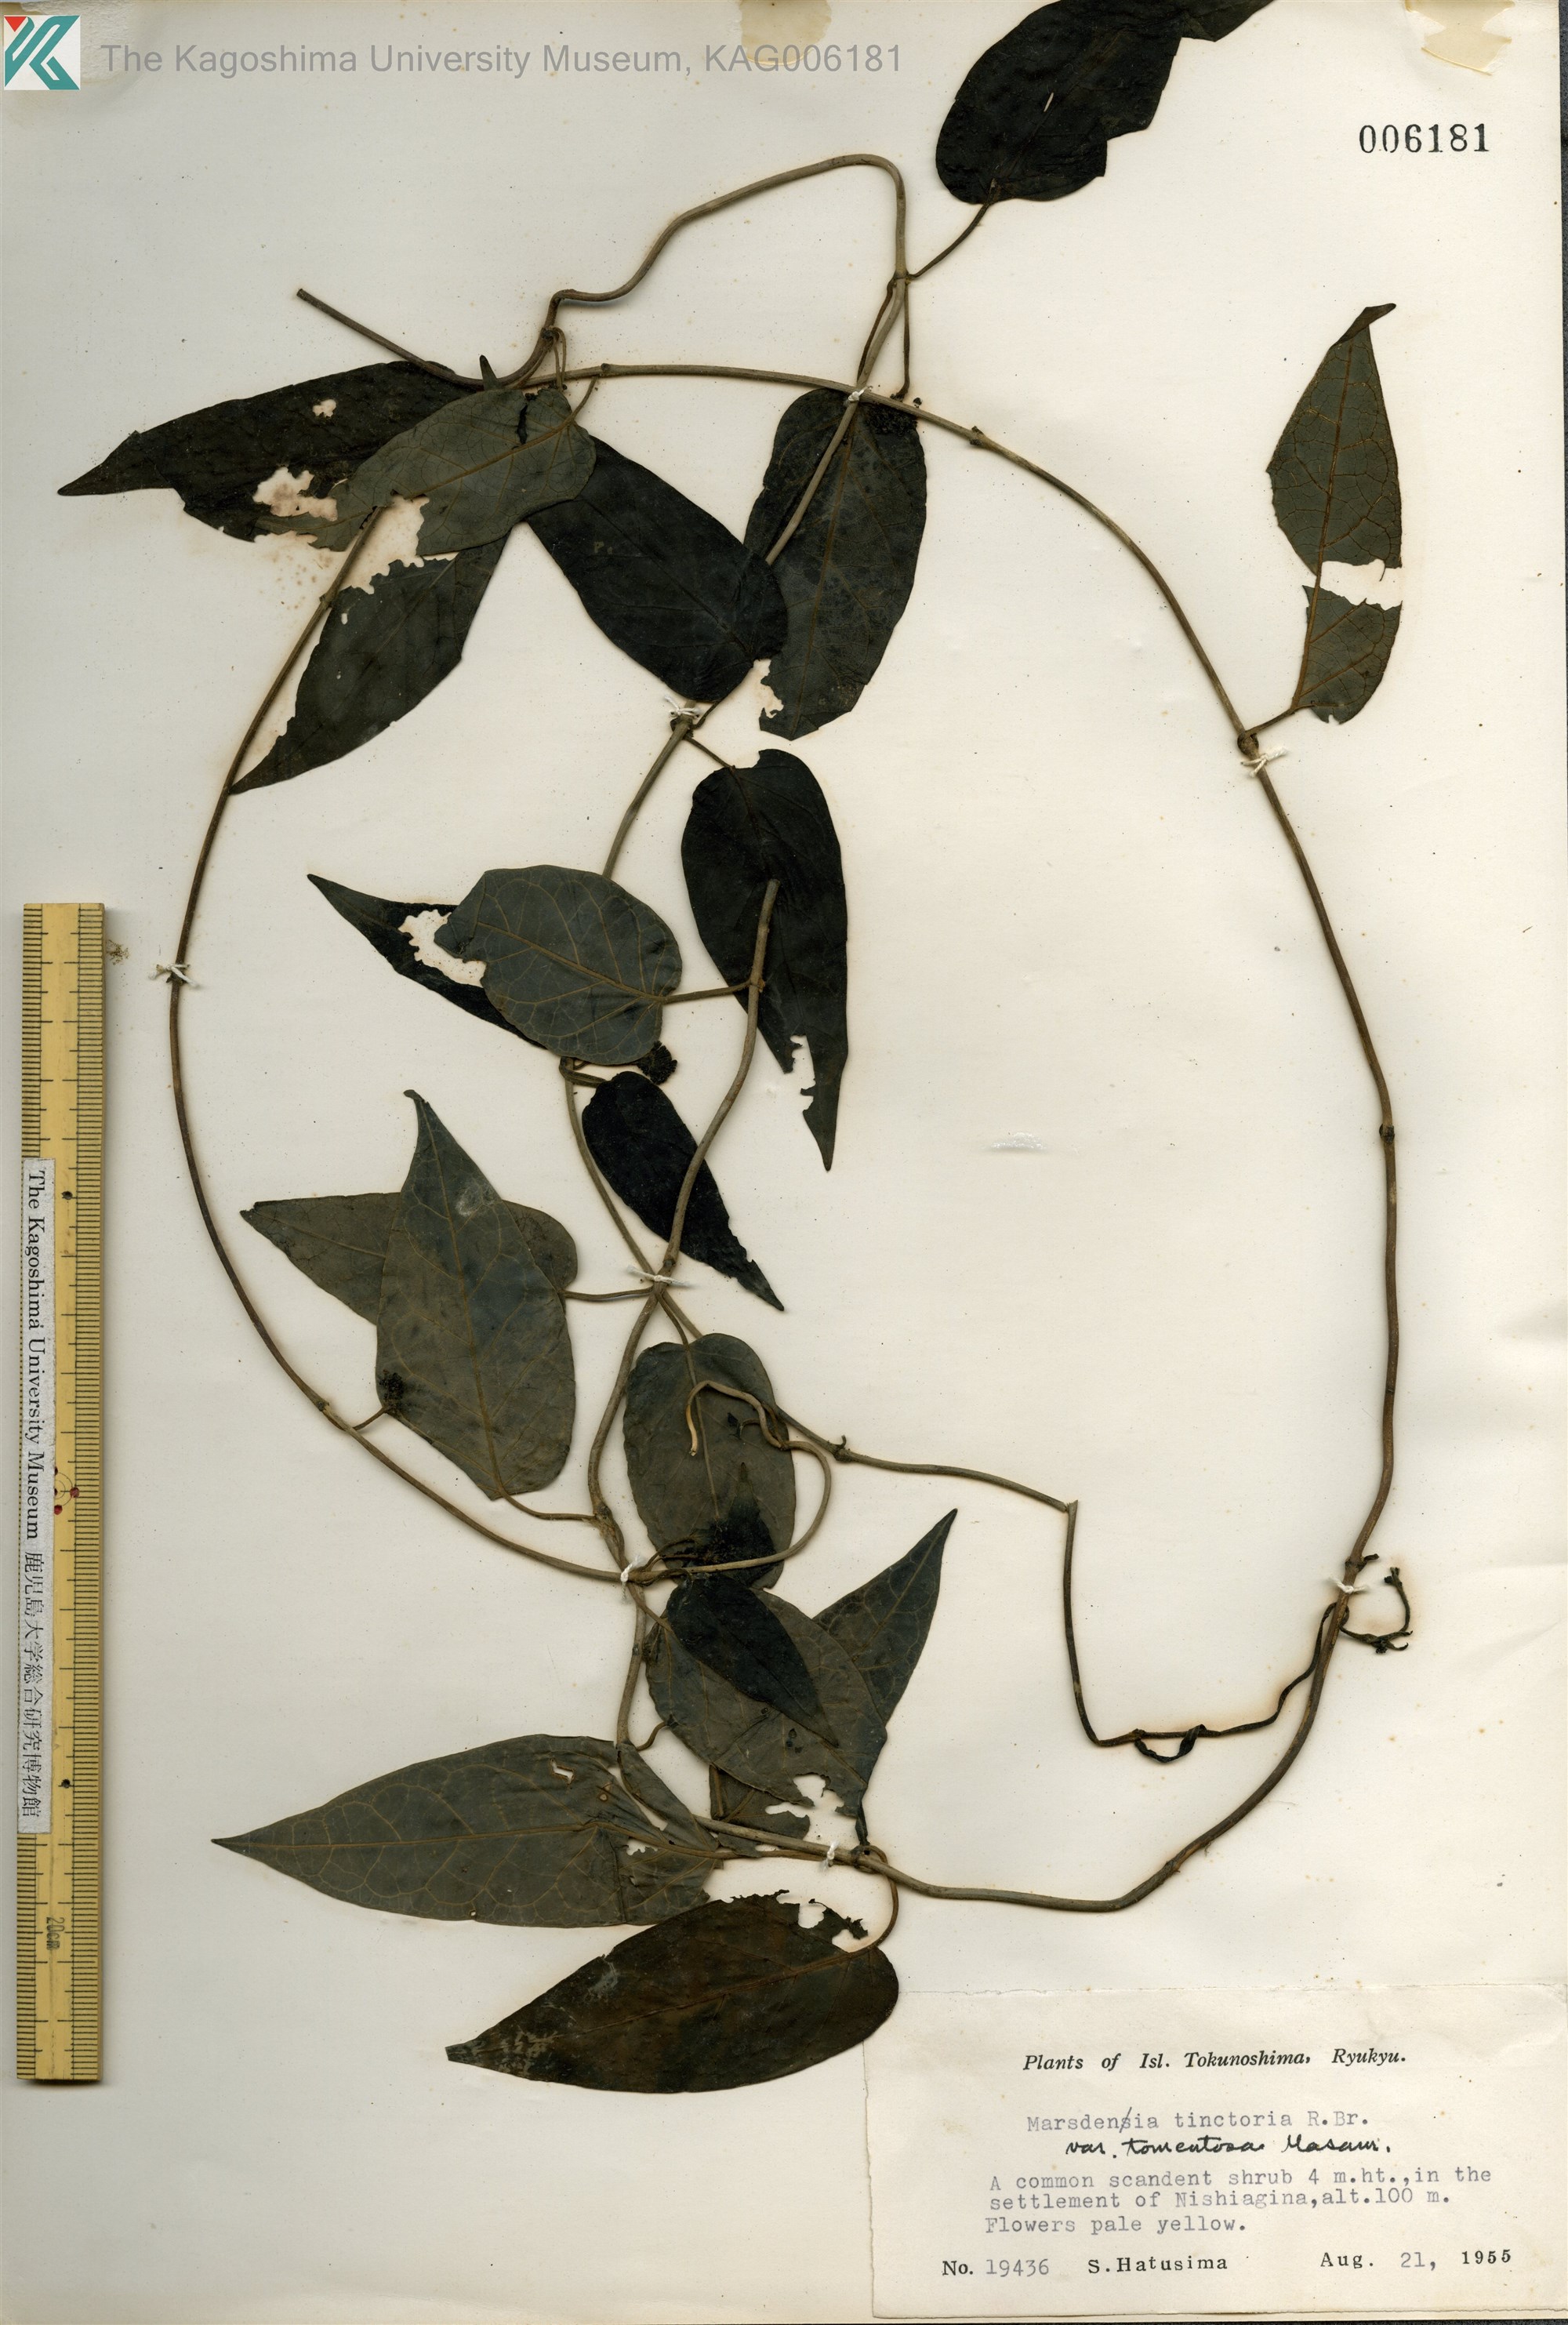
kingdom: Plantae
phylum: Tracheophyta
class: Magnoliopsida
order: Gentianales
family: Apocynaceae
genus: Marsdenia
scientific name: Marsdenia tinctoria
